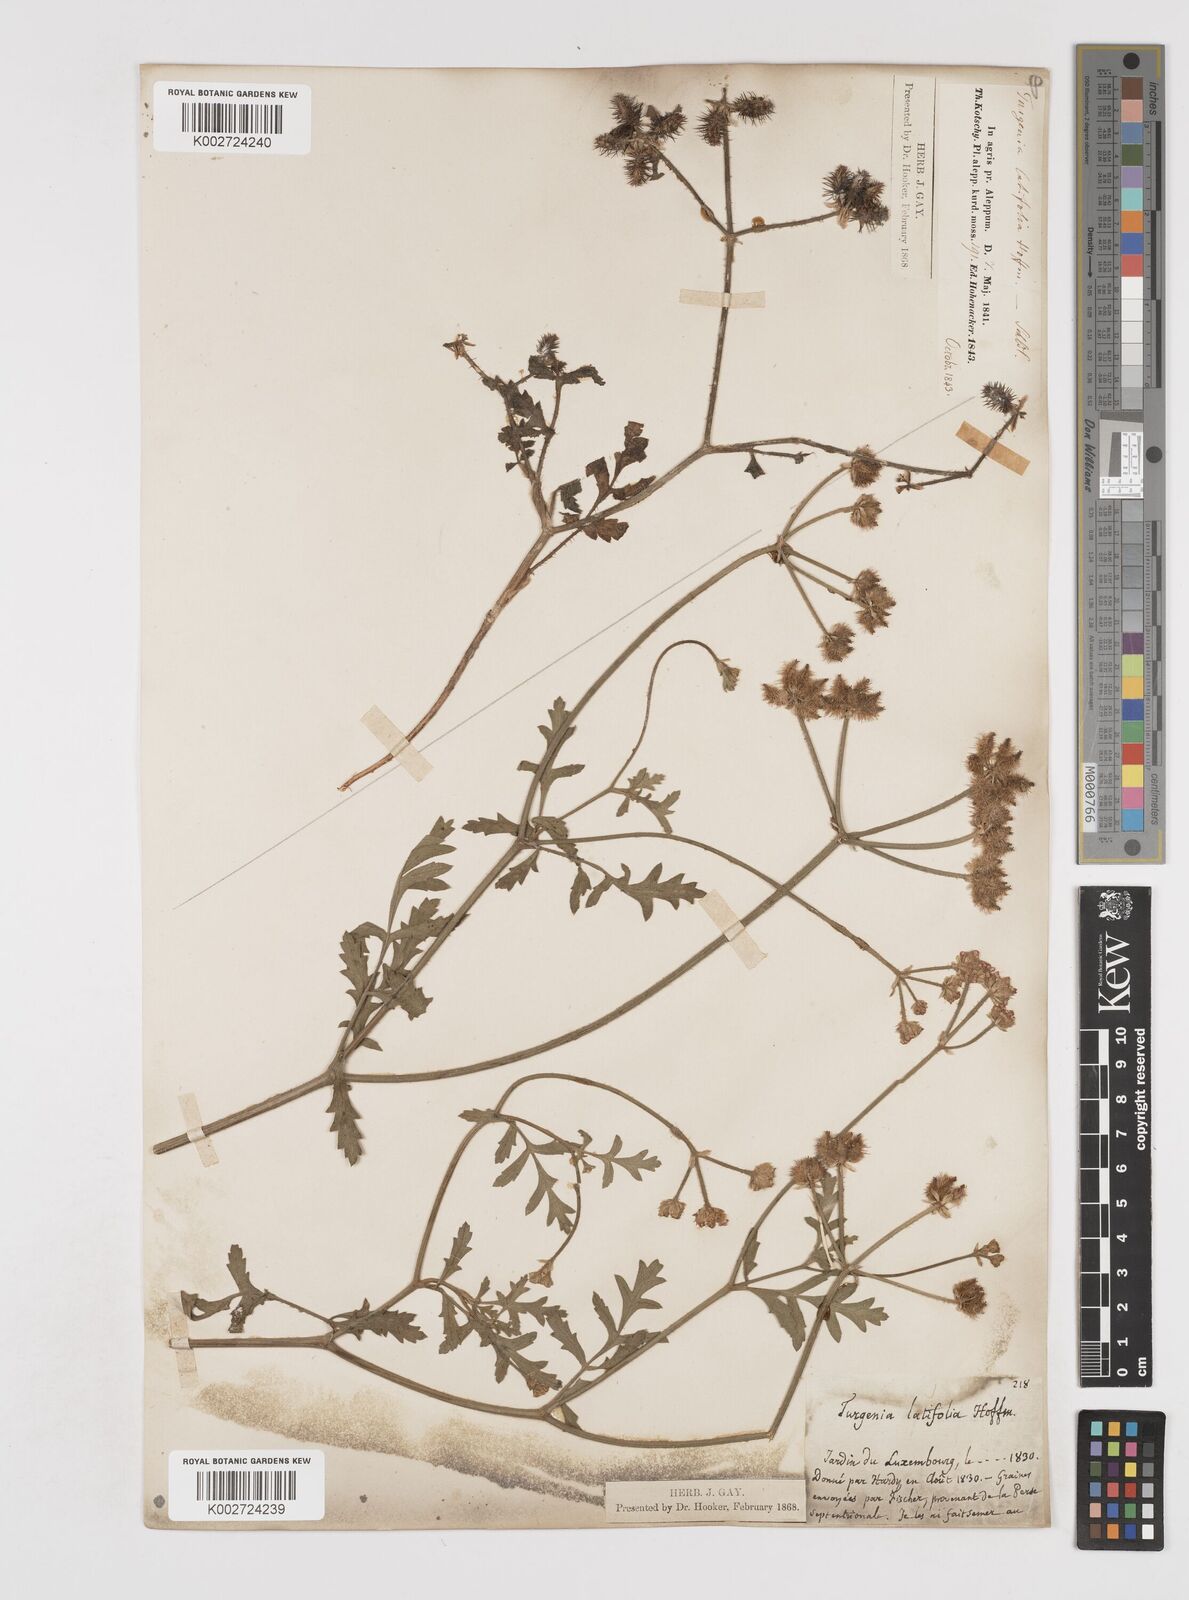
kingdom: Plantae
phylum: Tracheophyta
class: Magnoliopsida
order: Apiales
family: Apiaceae
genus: Turgenia
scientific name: Turgenia latifolia
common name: Greater bur-parsley
